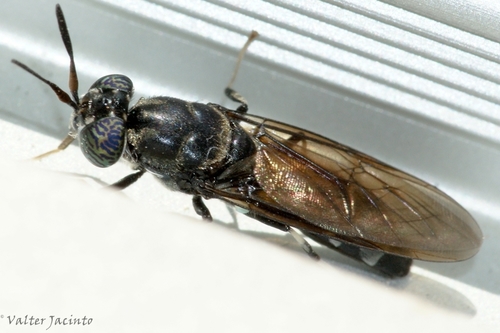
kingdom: Animalia
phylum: Arthropoda
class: Insecta
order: Diptera
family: Stratiomyidae
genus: Hermetia
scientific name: Hermetia illucens
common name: Black soldier fly
